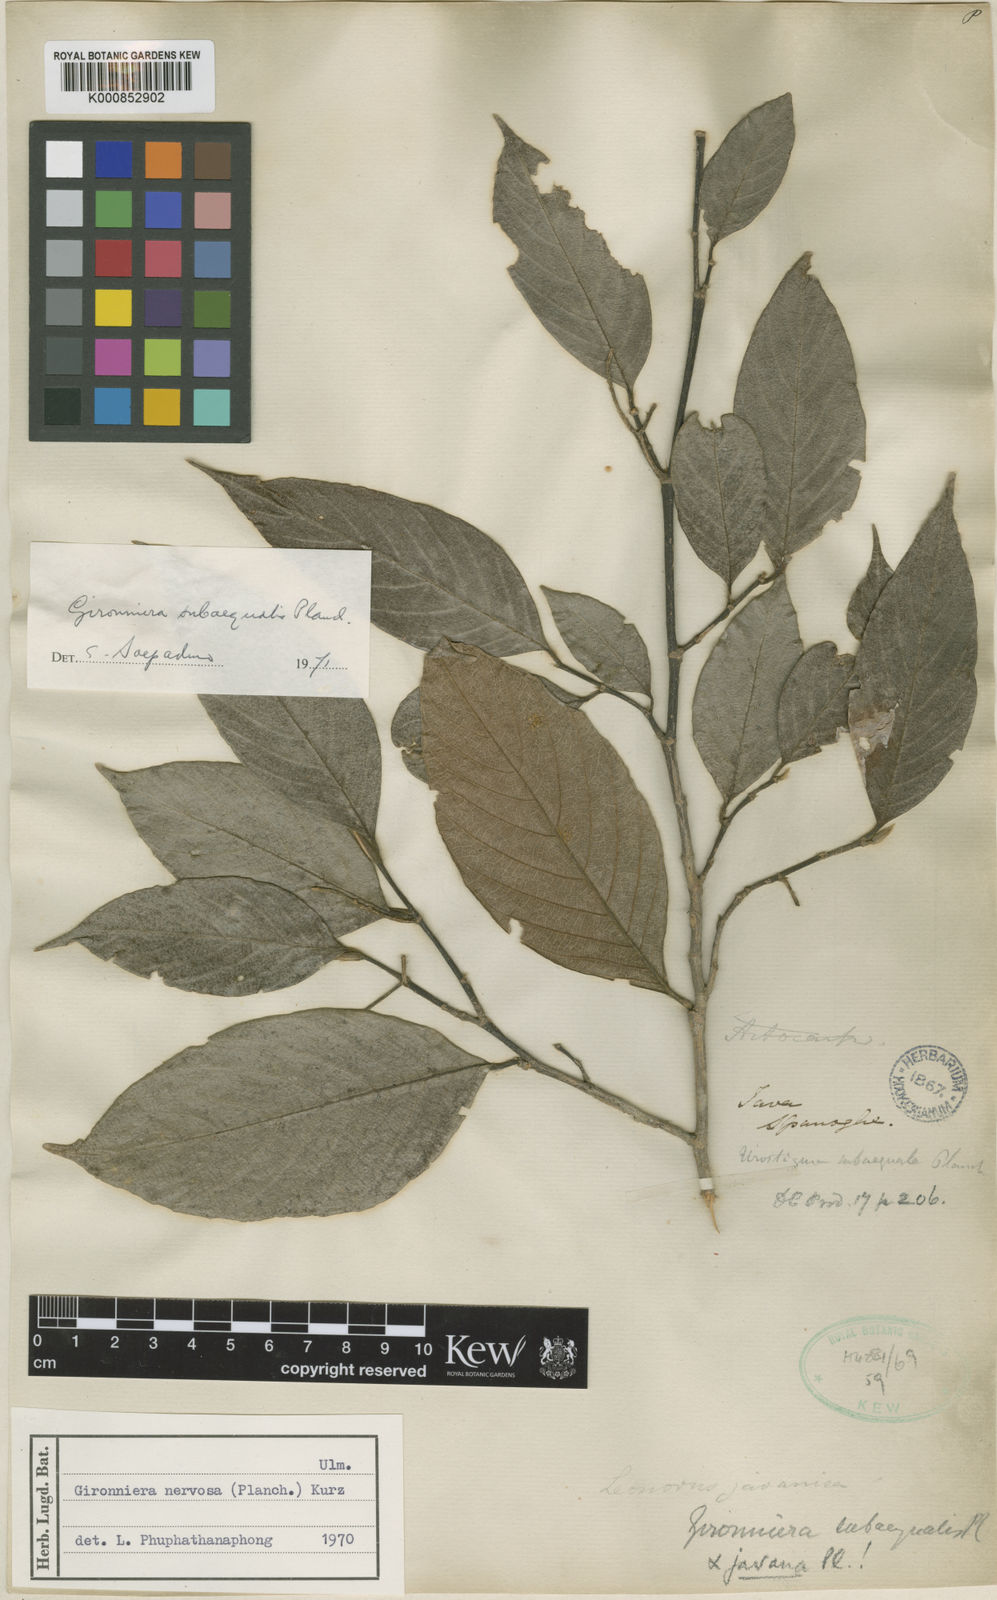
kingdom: Plantae
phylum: Tracheophyta
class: Magnoliopsida
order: Rosales
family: Cannabaceae
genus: Gironniera
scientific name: Gironniera subaequalis
